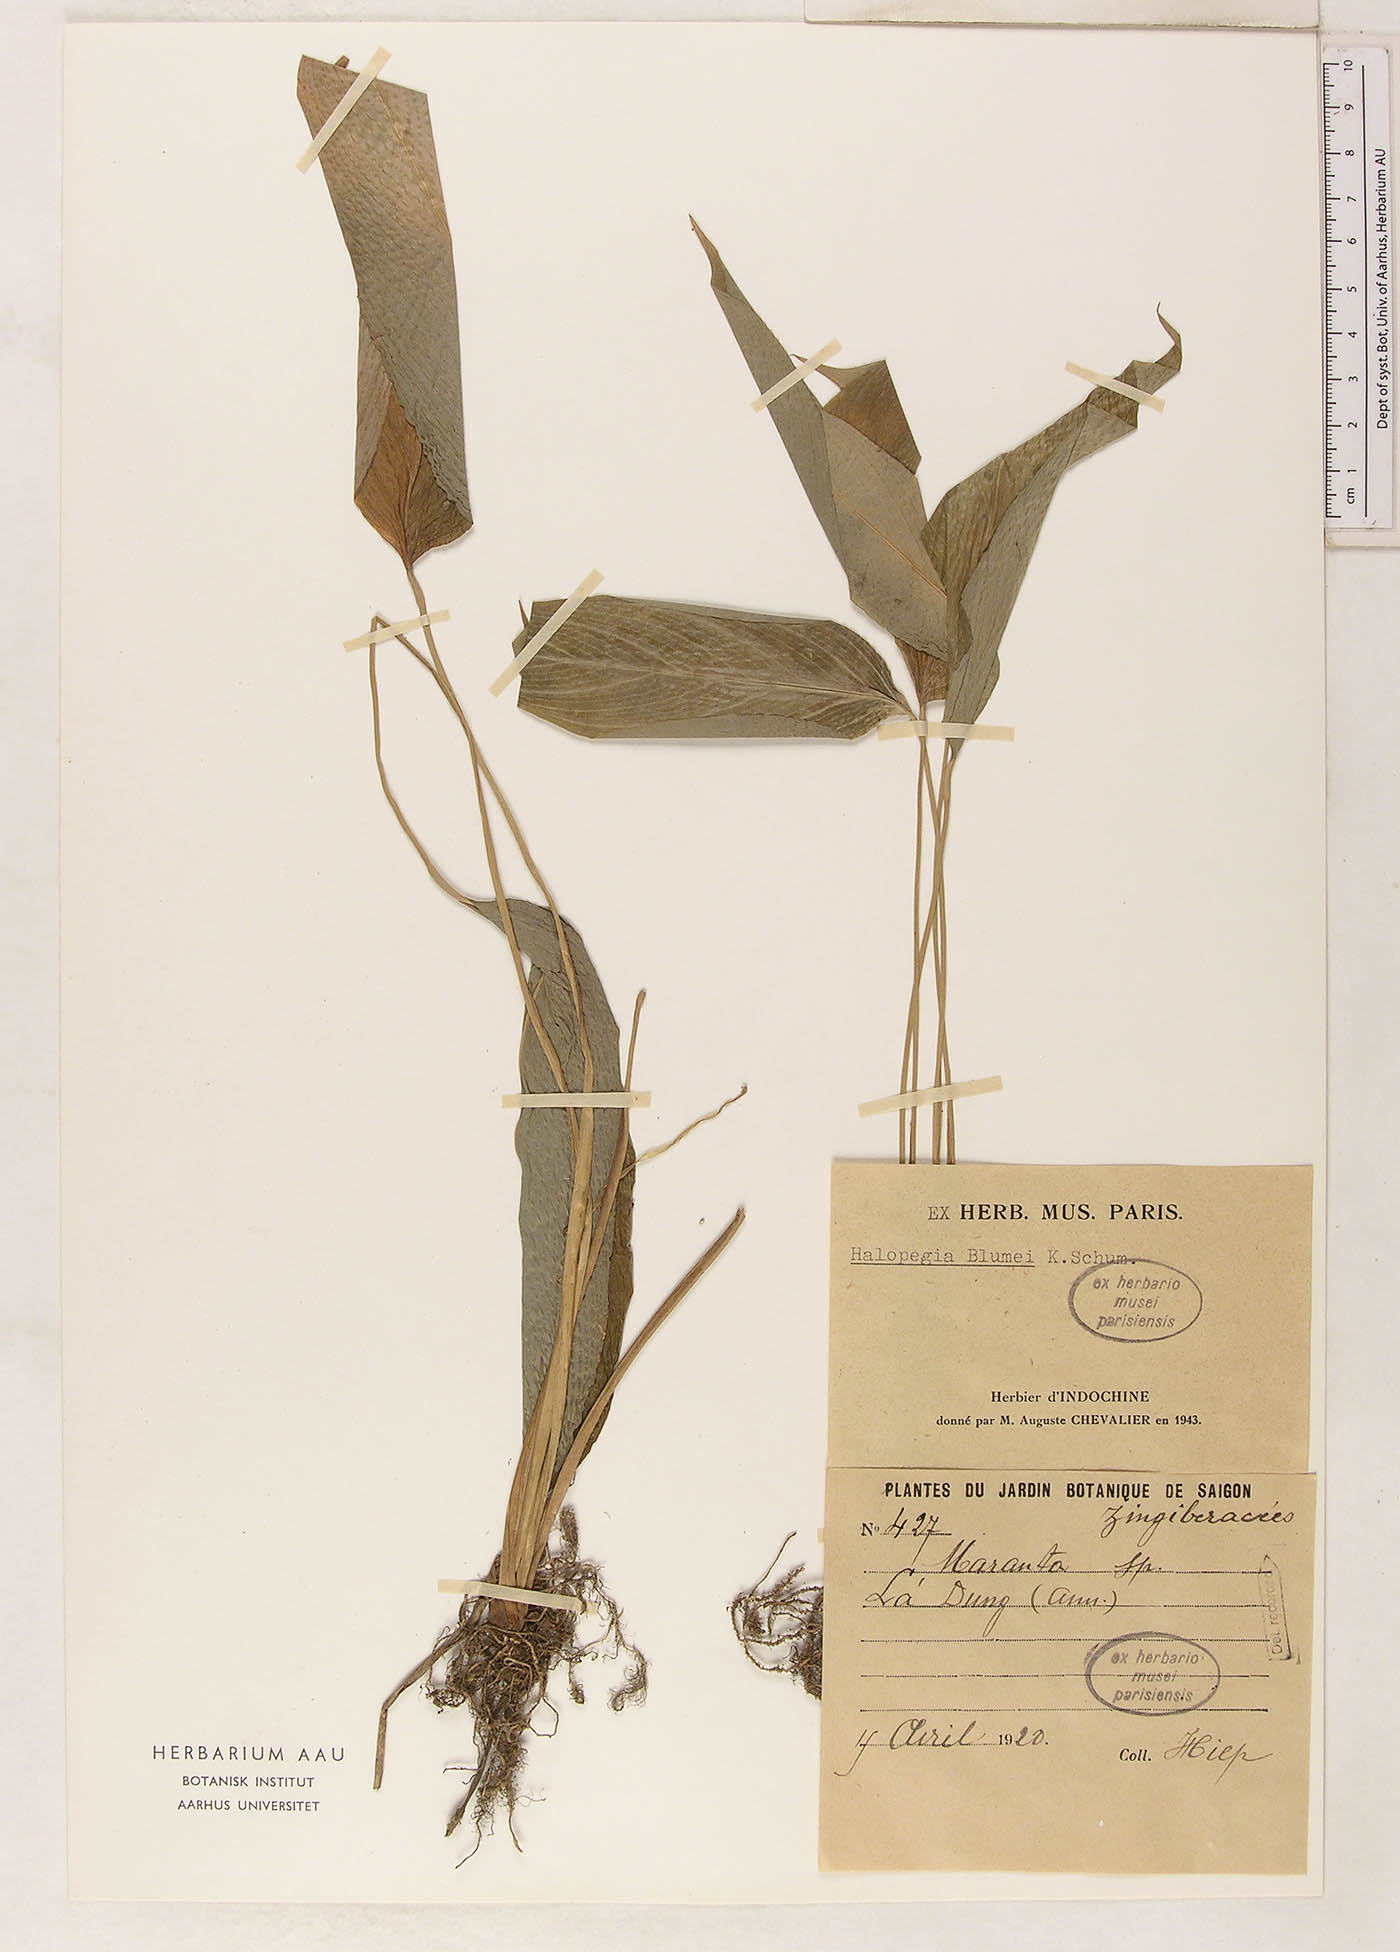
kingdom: Plantae
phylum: Tracheophyta
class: Liliopsida
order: Zingiberales
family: Marantaceae
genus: Halopegia
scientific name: Halopegia blumei
